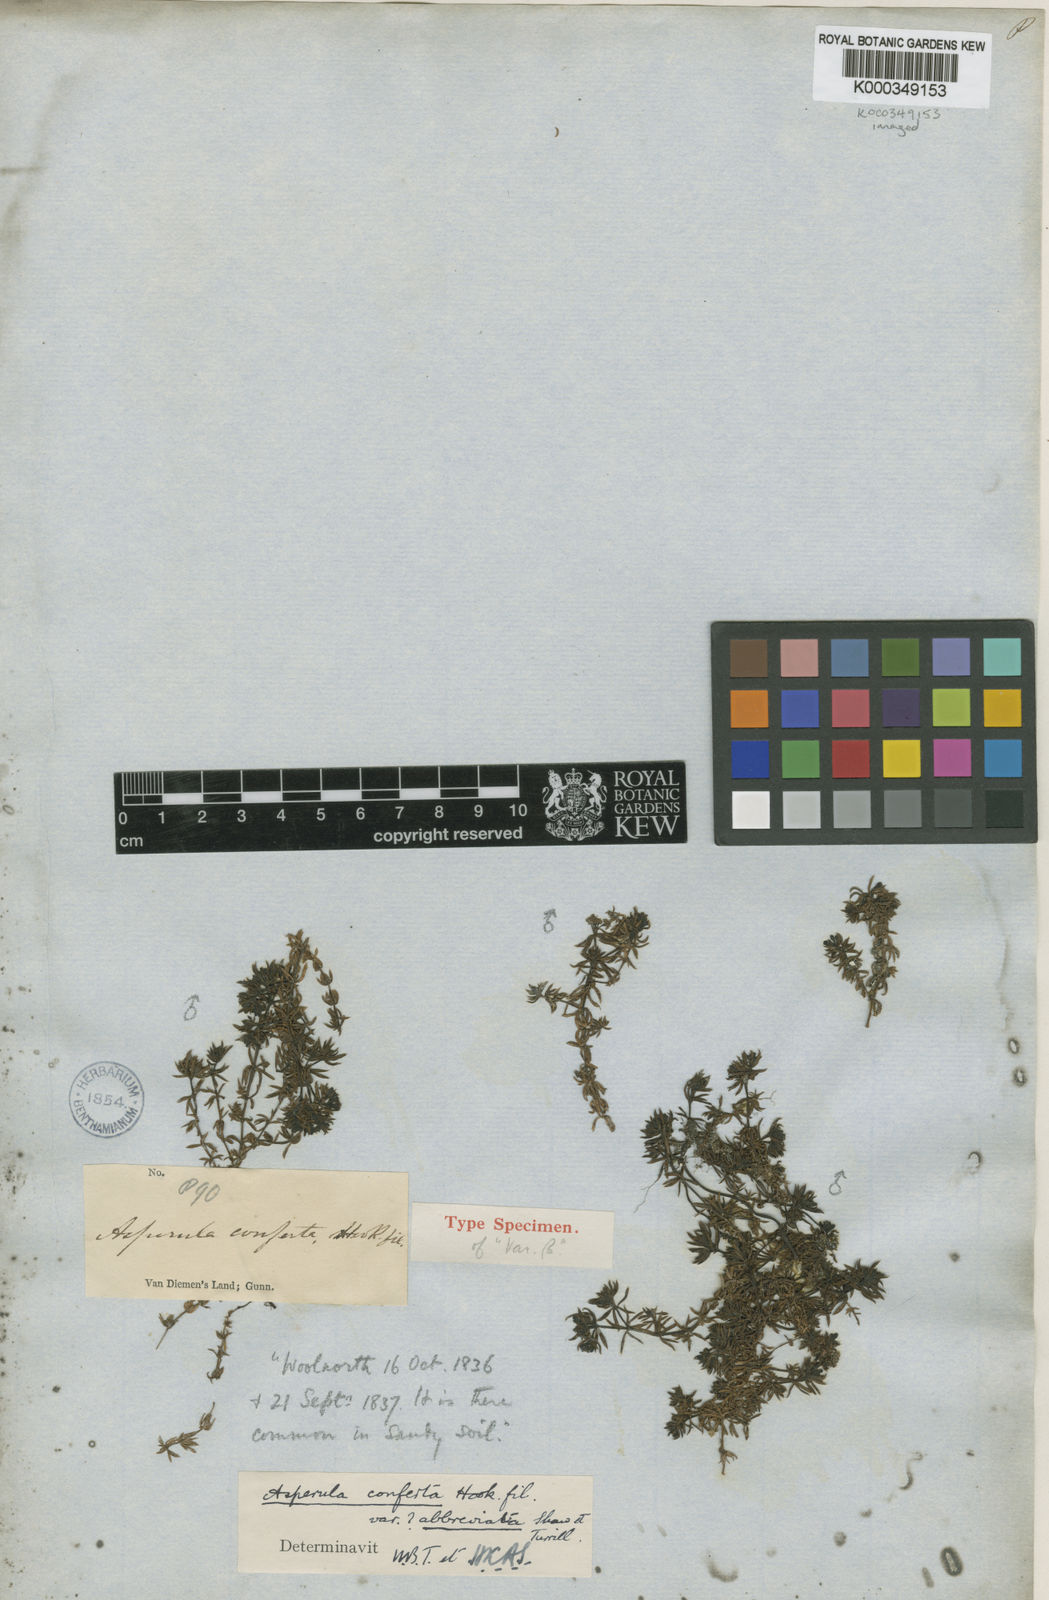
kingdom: Plantae
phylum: Tracheophyta
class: Magnoliopsida
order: Gentianales
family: Rubiaceae
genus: Asperula
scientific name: Asperula conferta
